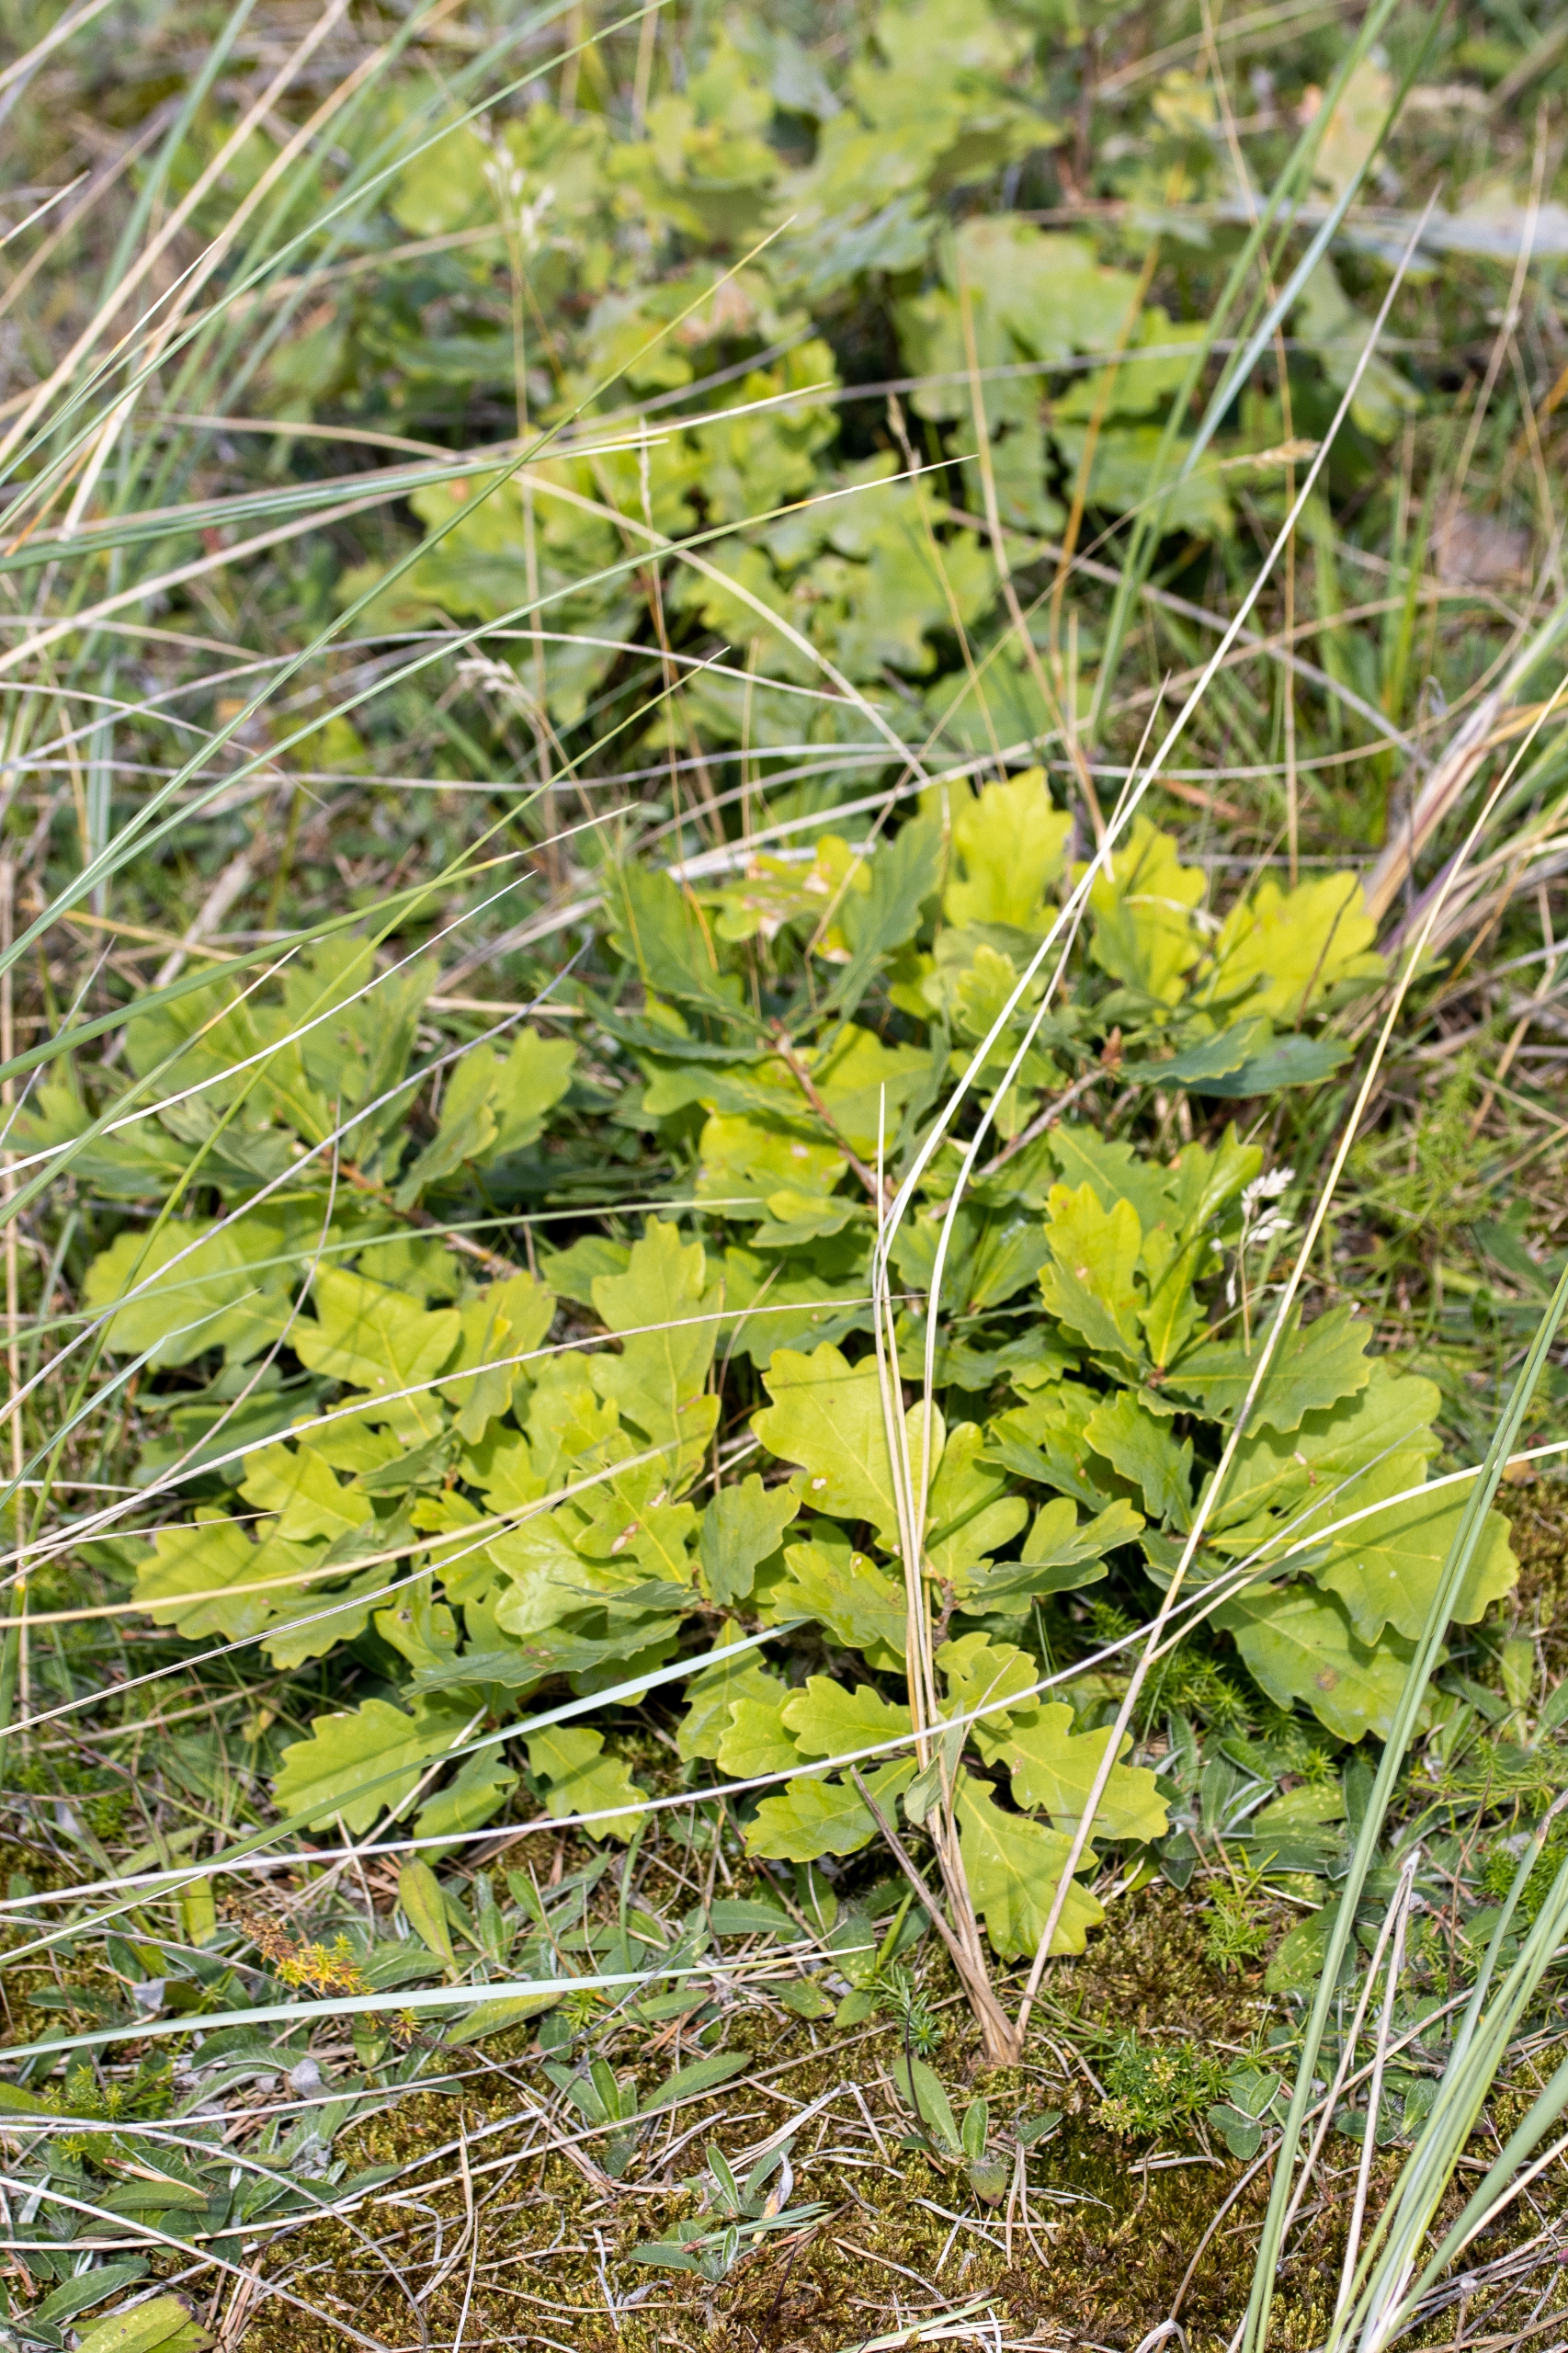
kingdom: Plantae
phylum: Tracheophyta
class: Magnoliopsida
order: Fagales
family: Fagaceae
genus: Quercus
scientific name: Quercus robur
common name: Stilk-eg/almindelig eg
